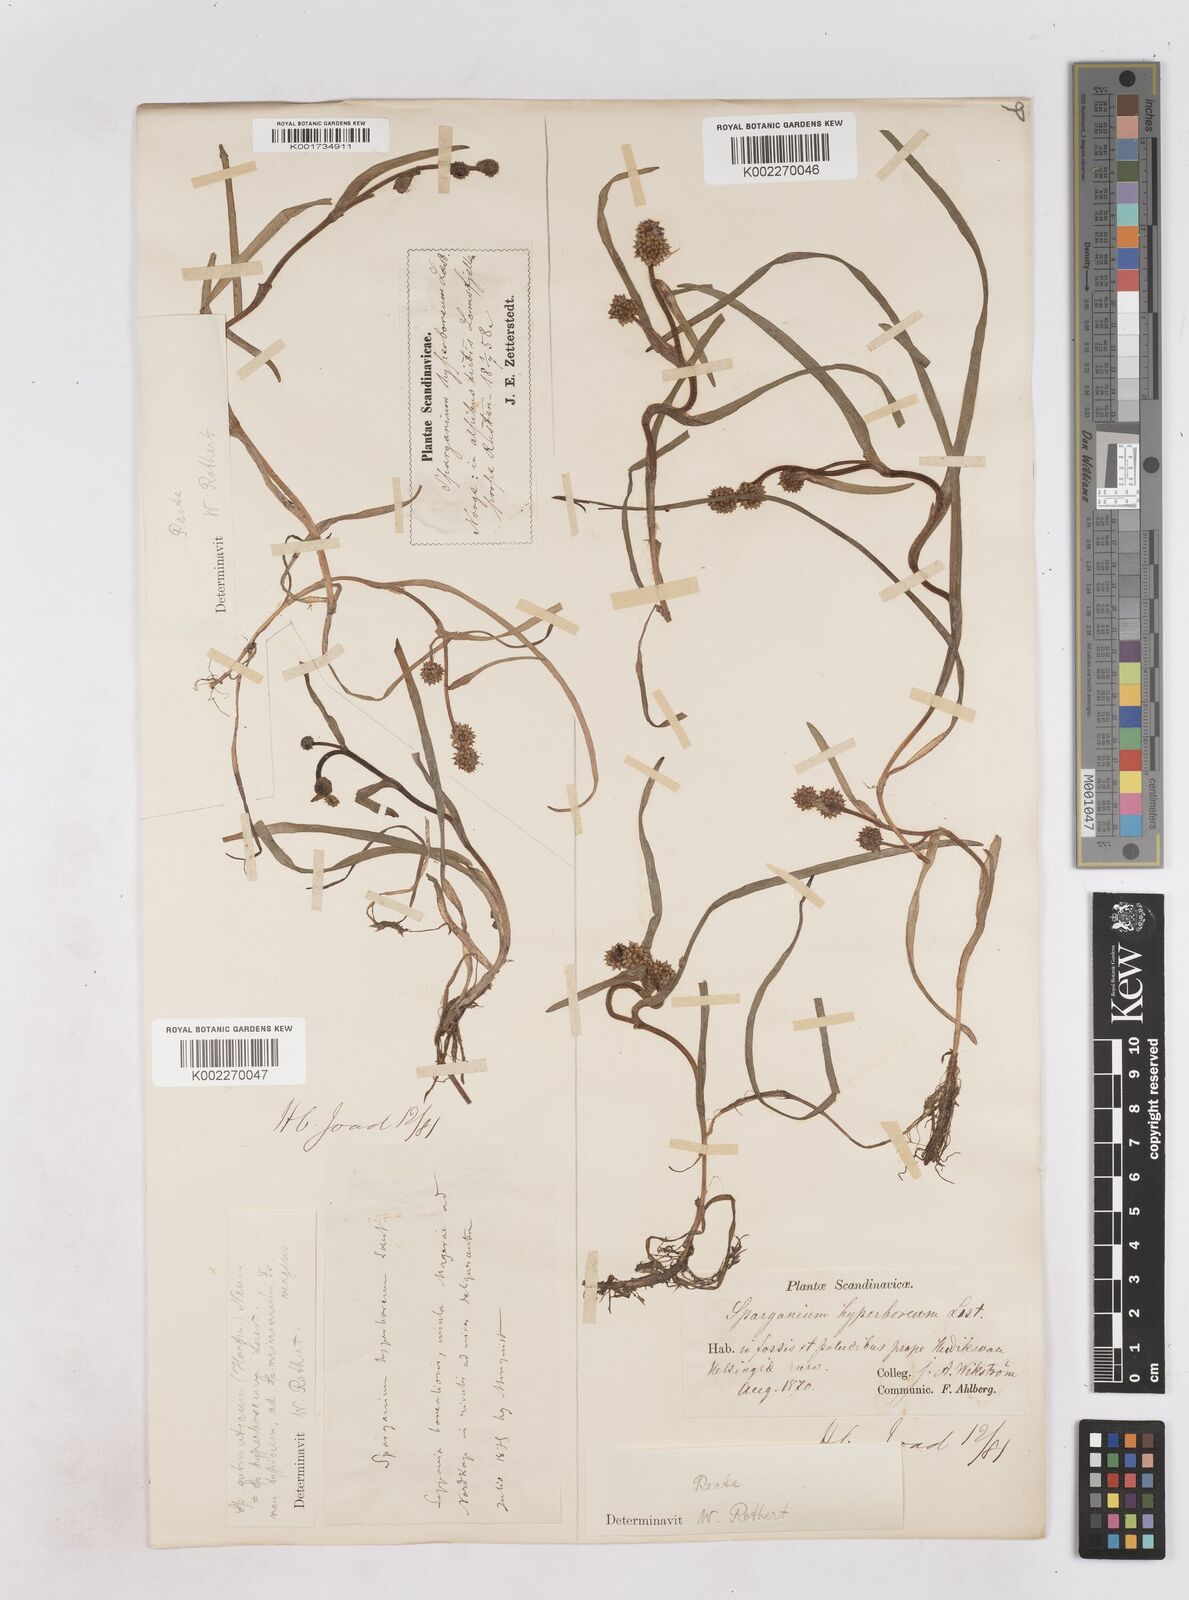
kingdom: Plantae
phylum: Tracheophyta
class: Liliopsida
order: Poales
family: Typhaceae
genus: Sparganium
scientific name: Sparganium hyperboreum
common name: Arctic burreed
